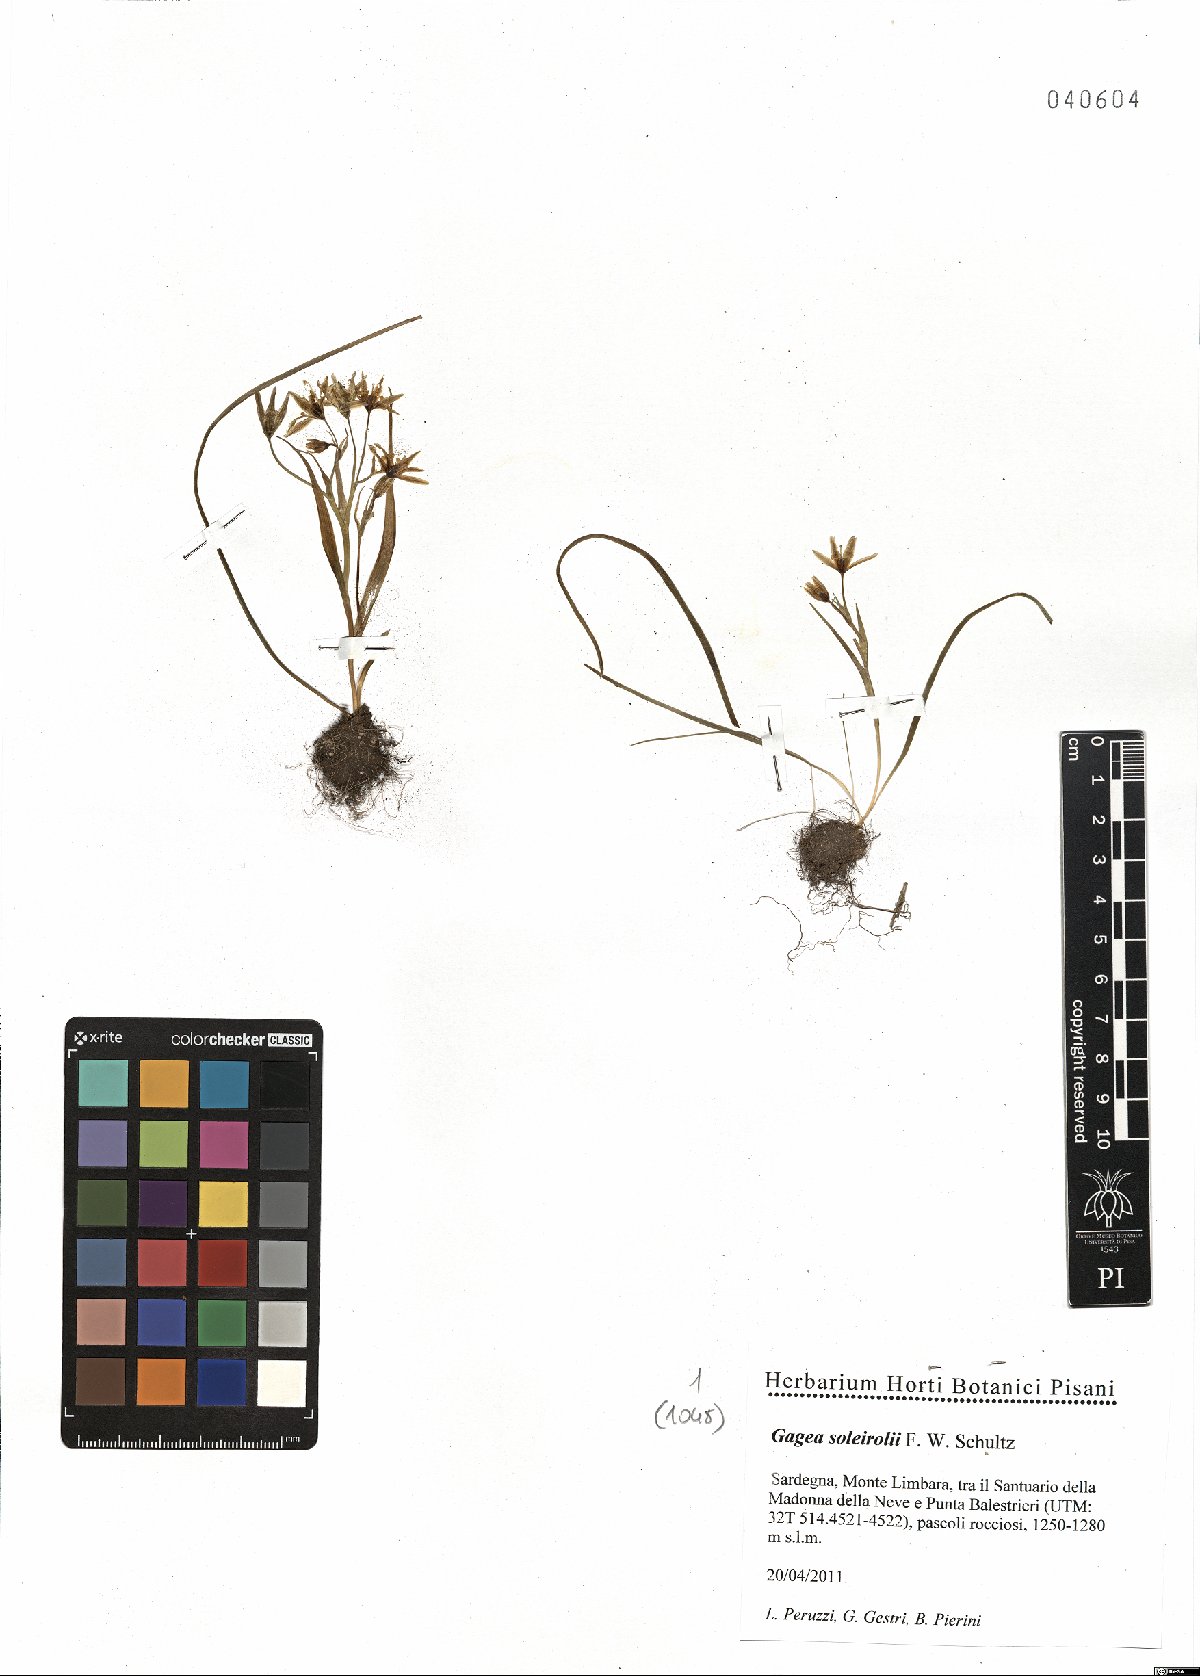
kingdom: Plantae
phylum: Tracheophyta
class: Liliopsida
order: Liliales
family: Liliaceae
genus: Gagea
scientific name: Gagea soleirolii
